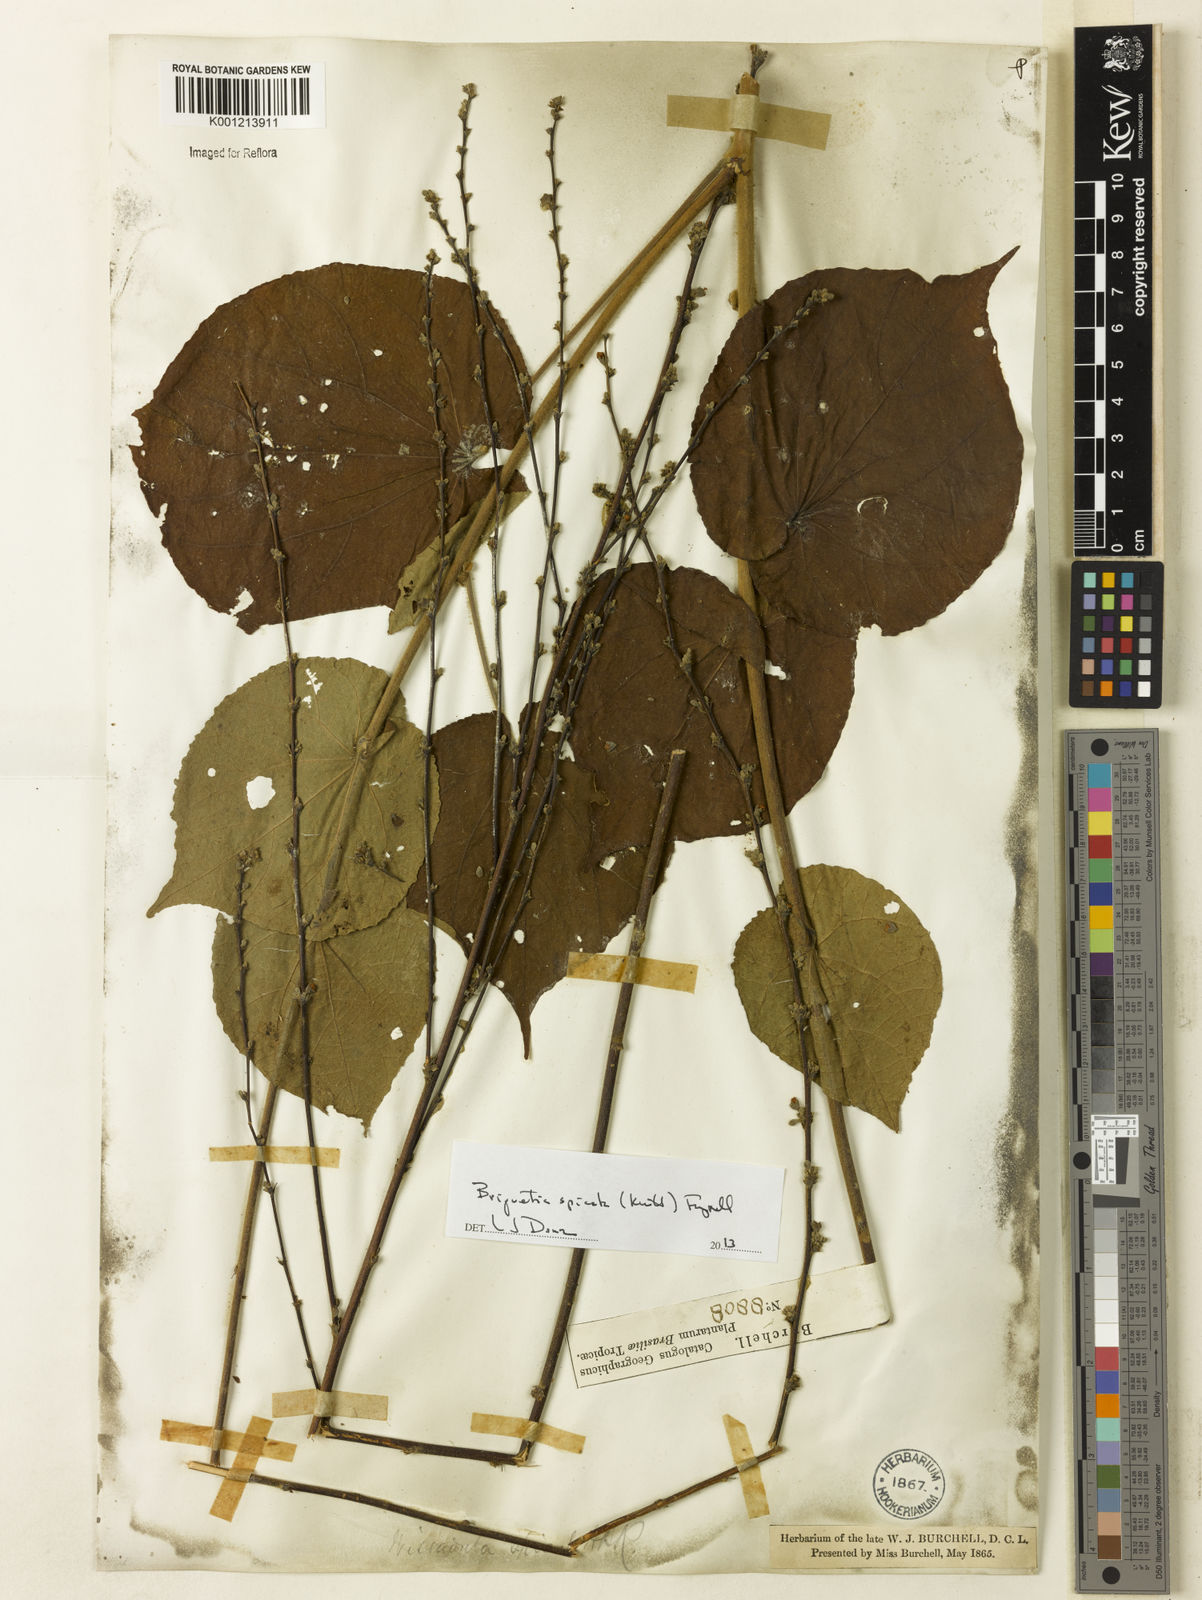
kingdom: Plantae
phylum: Tracheophyta
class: Magnoliopsida
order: Malvales
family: Malvaceae
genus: Allobriquetia
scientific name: Allobriquetia spicata
